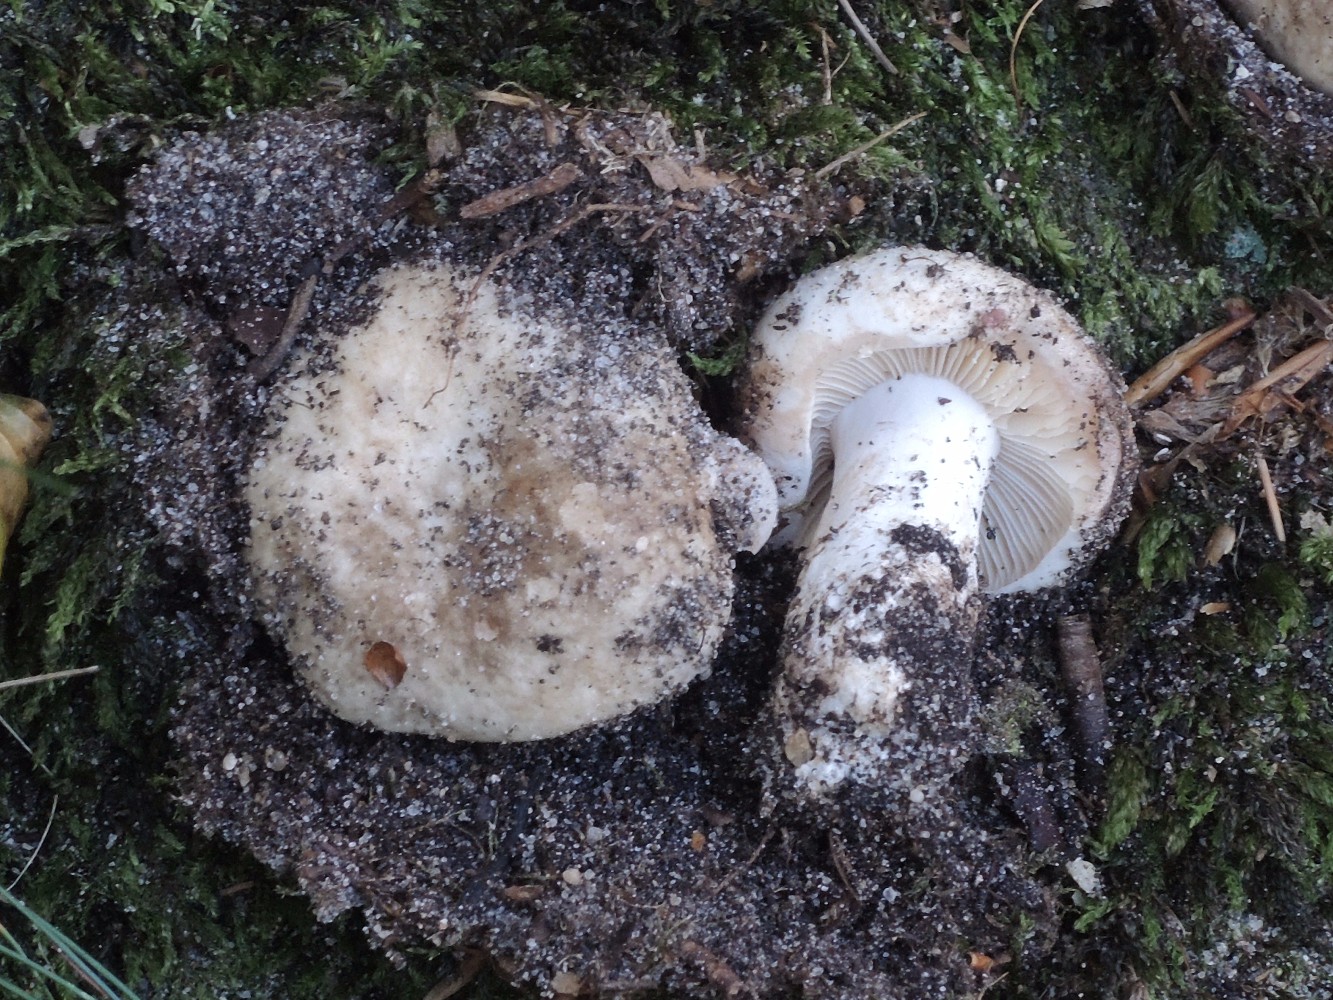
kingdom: Fungi
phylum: Basidiomycota
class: Agaricomycetes
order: Russulales
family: Russulaceae
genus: Russula
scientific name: Russula densifolia
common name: tætbladet skørhat
